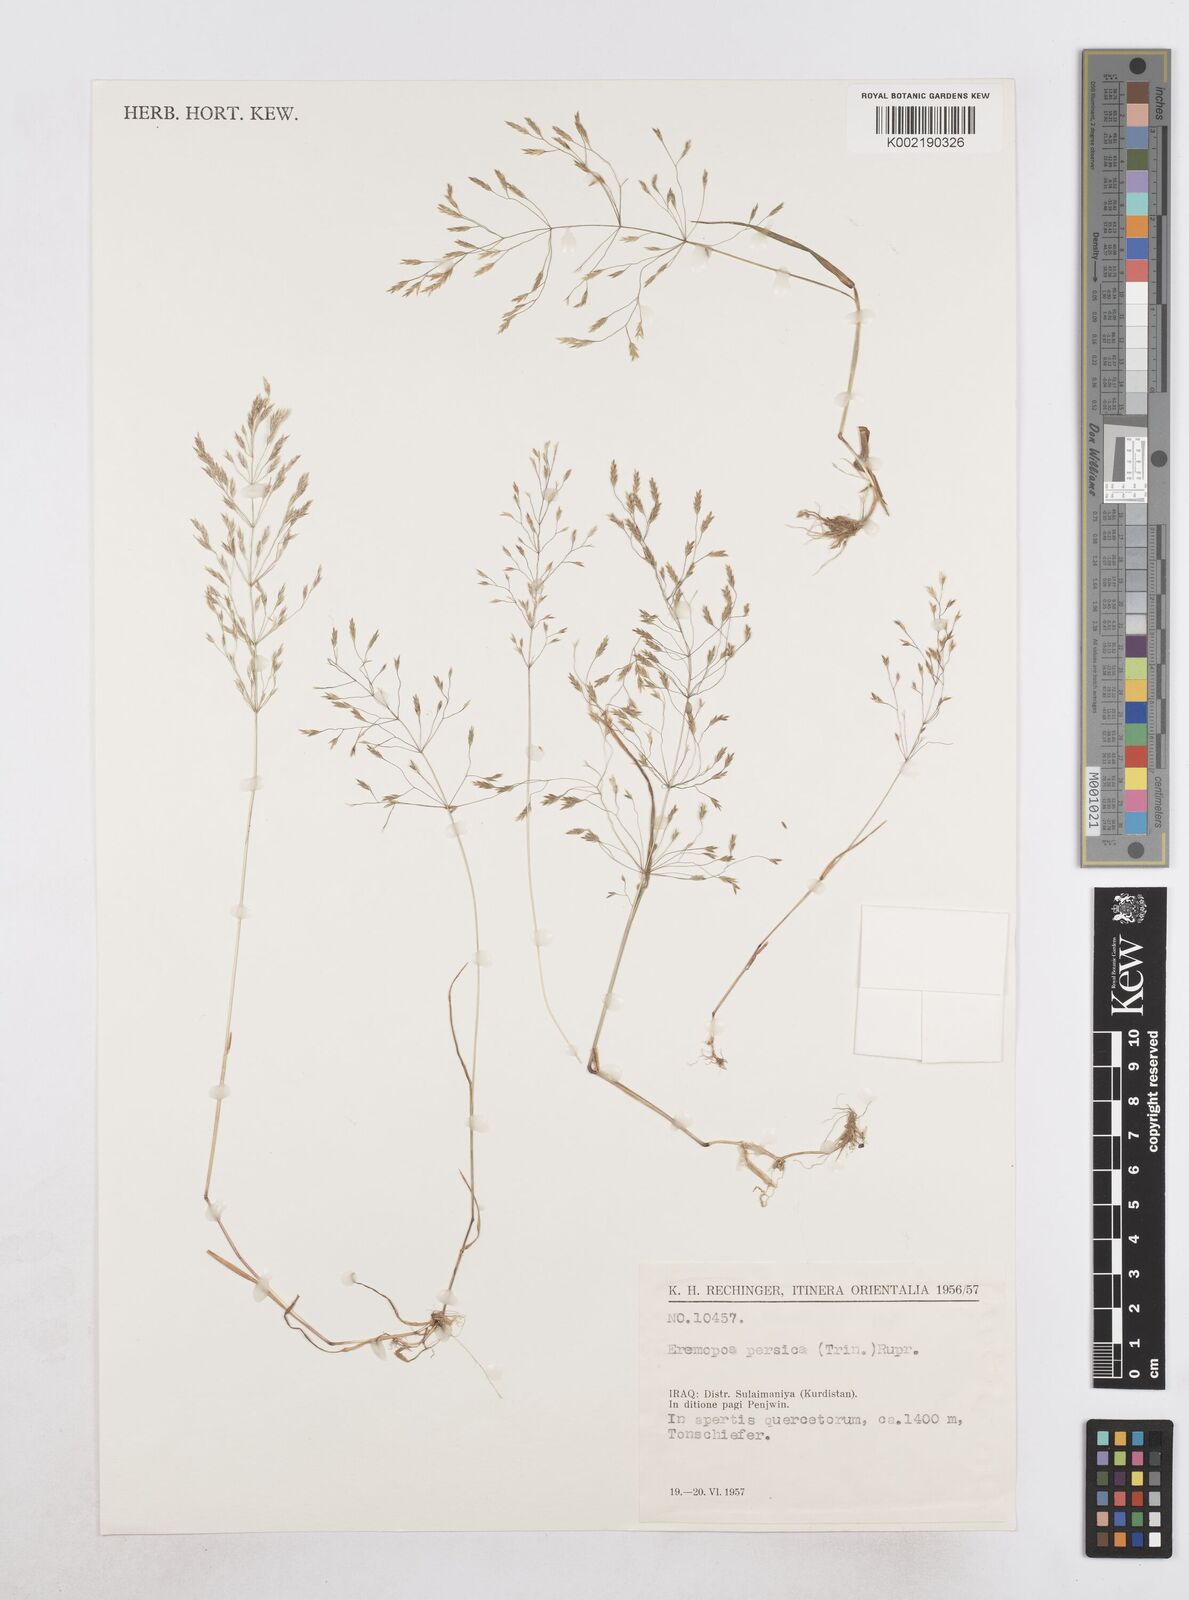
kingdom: Plantae
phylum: Tracheophyta
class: Liliopsida
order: Poales
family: Poaceae
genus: Poa
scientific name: Poa persica
